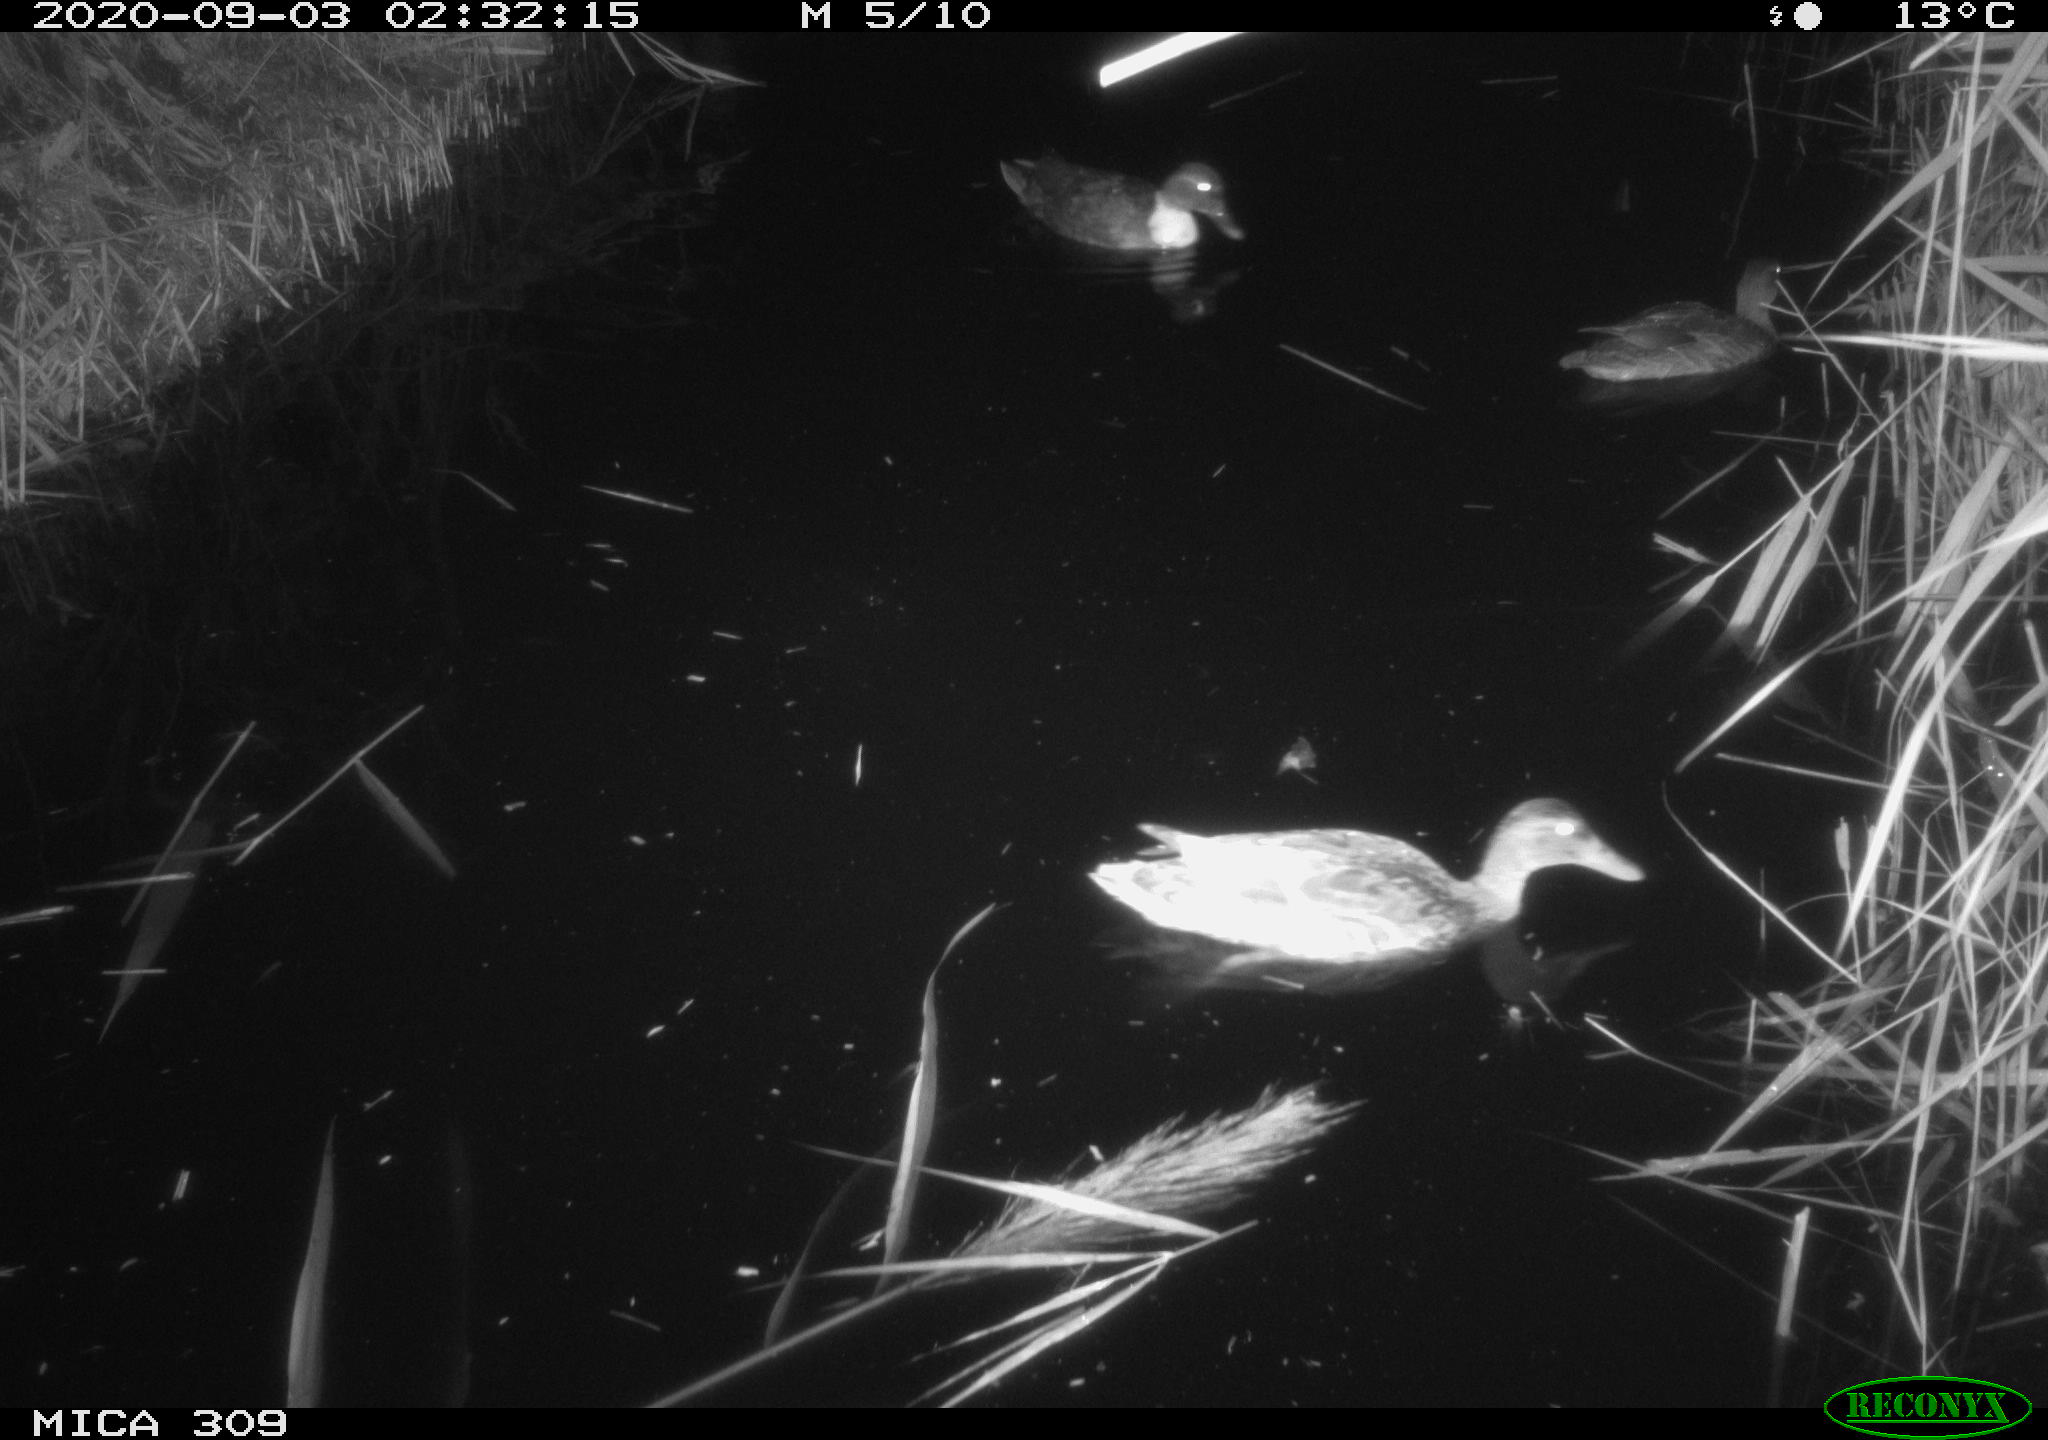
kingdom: Animalia
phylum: Chordata
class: Aves
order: Anseriformes
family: Anatidae
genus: Anas
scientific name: Anas platyrhynchos
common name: Mallard
